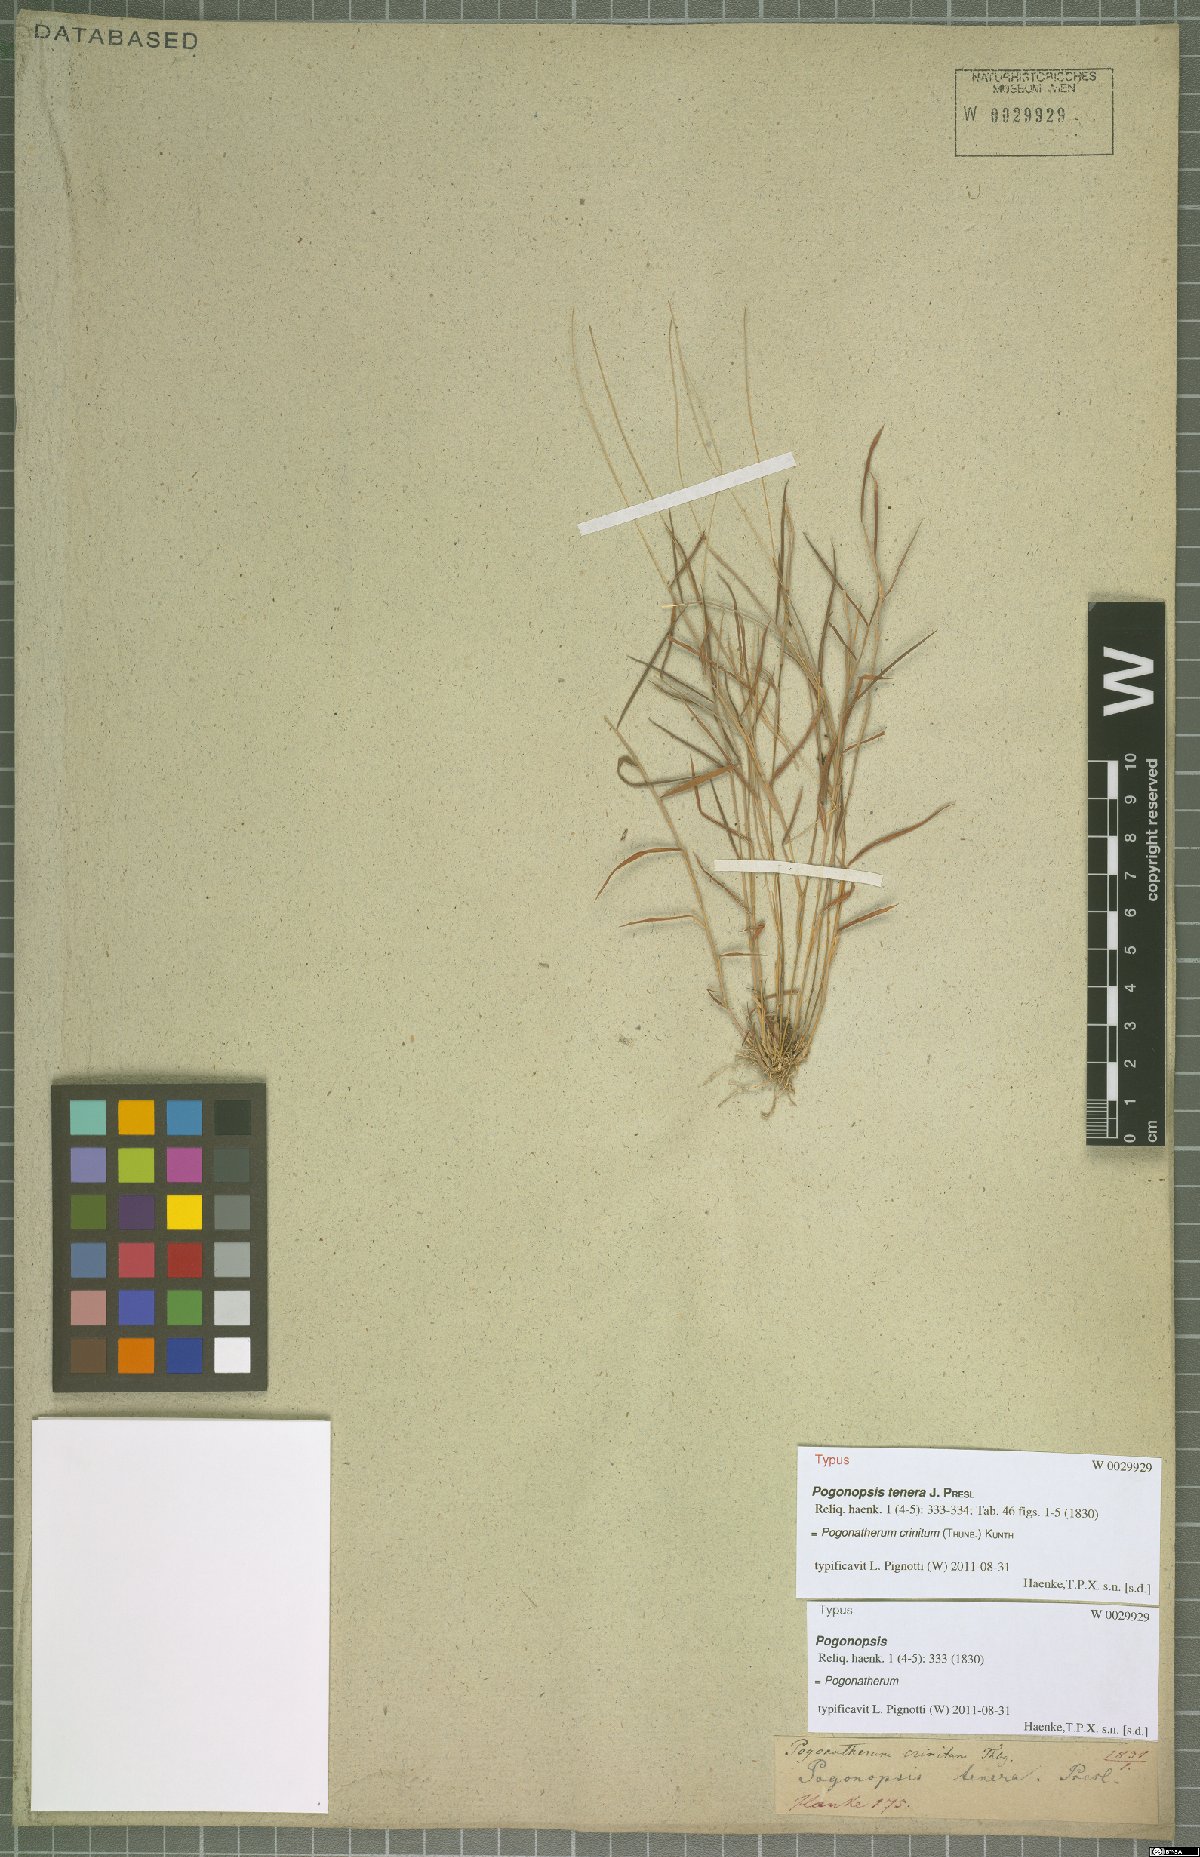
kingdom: Plantae
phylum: Tracheophyta
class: Liliopsida
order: Poales
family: Poaceae
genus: Pogonatherum
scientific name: Pogonatherum crinitum
